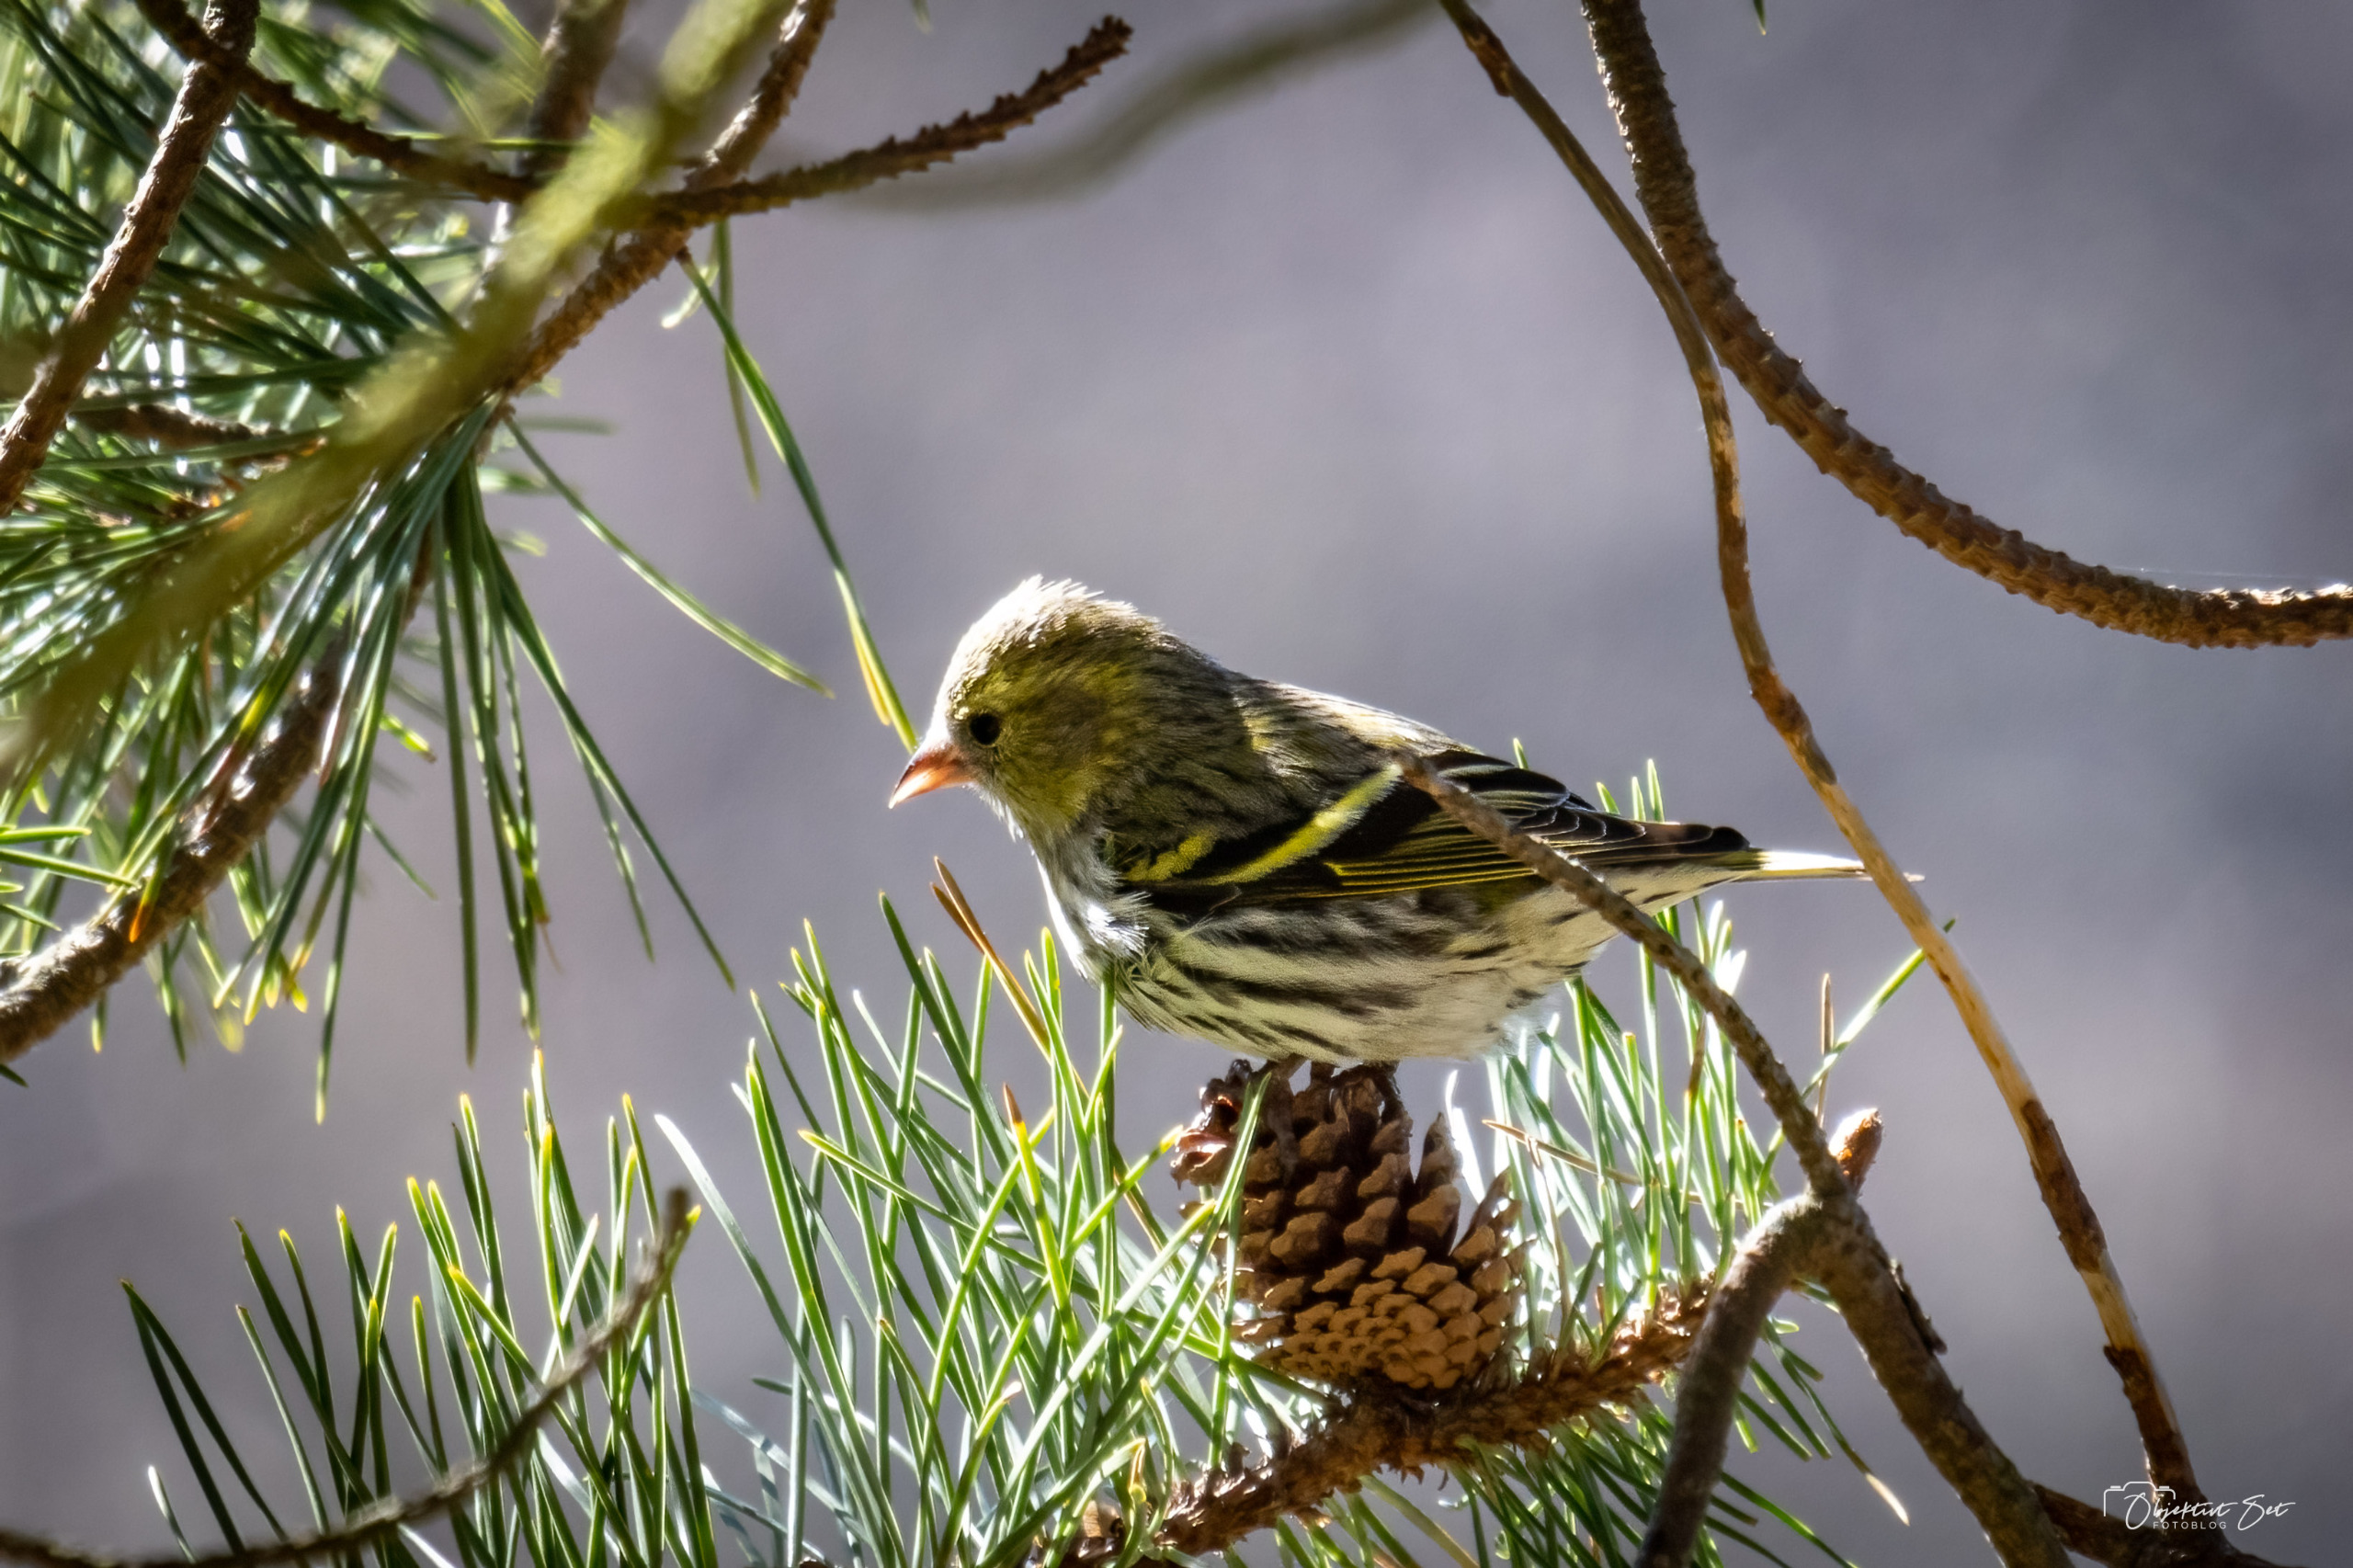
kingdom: Animalia
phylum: Chordata
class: Aves
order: Passeriformes
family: Fringillidae
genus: Spinus
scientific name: Spinus spinus
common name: Grønsisken
